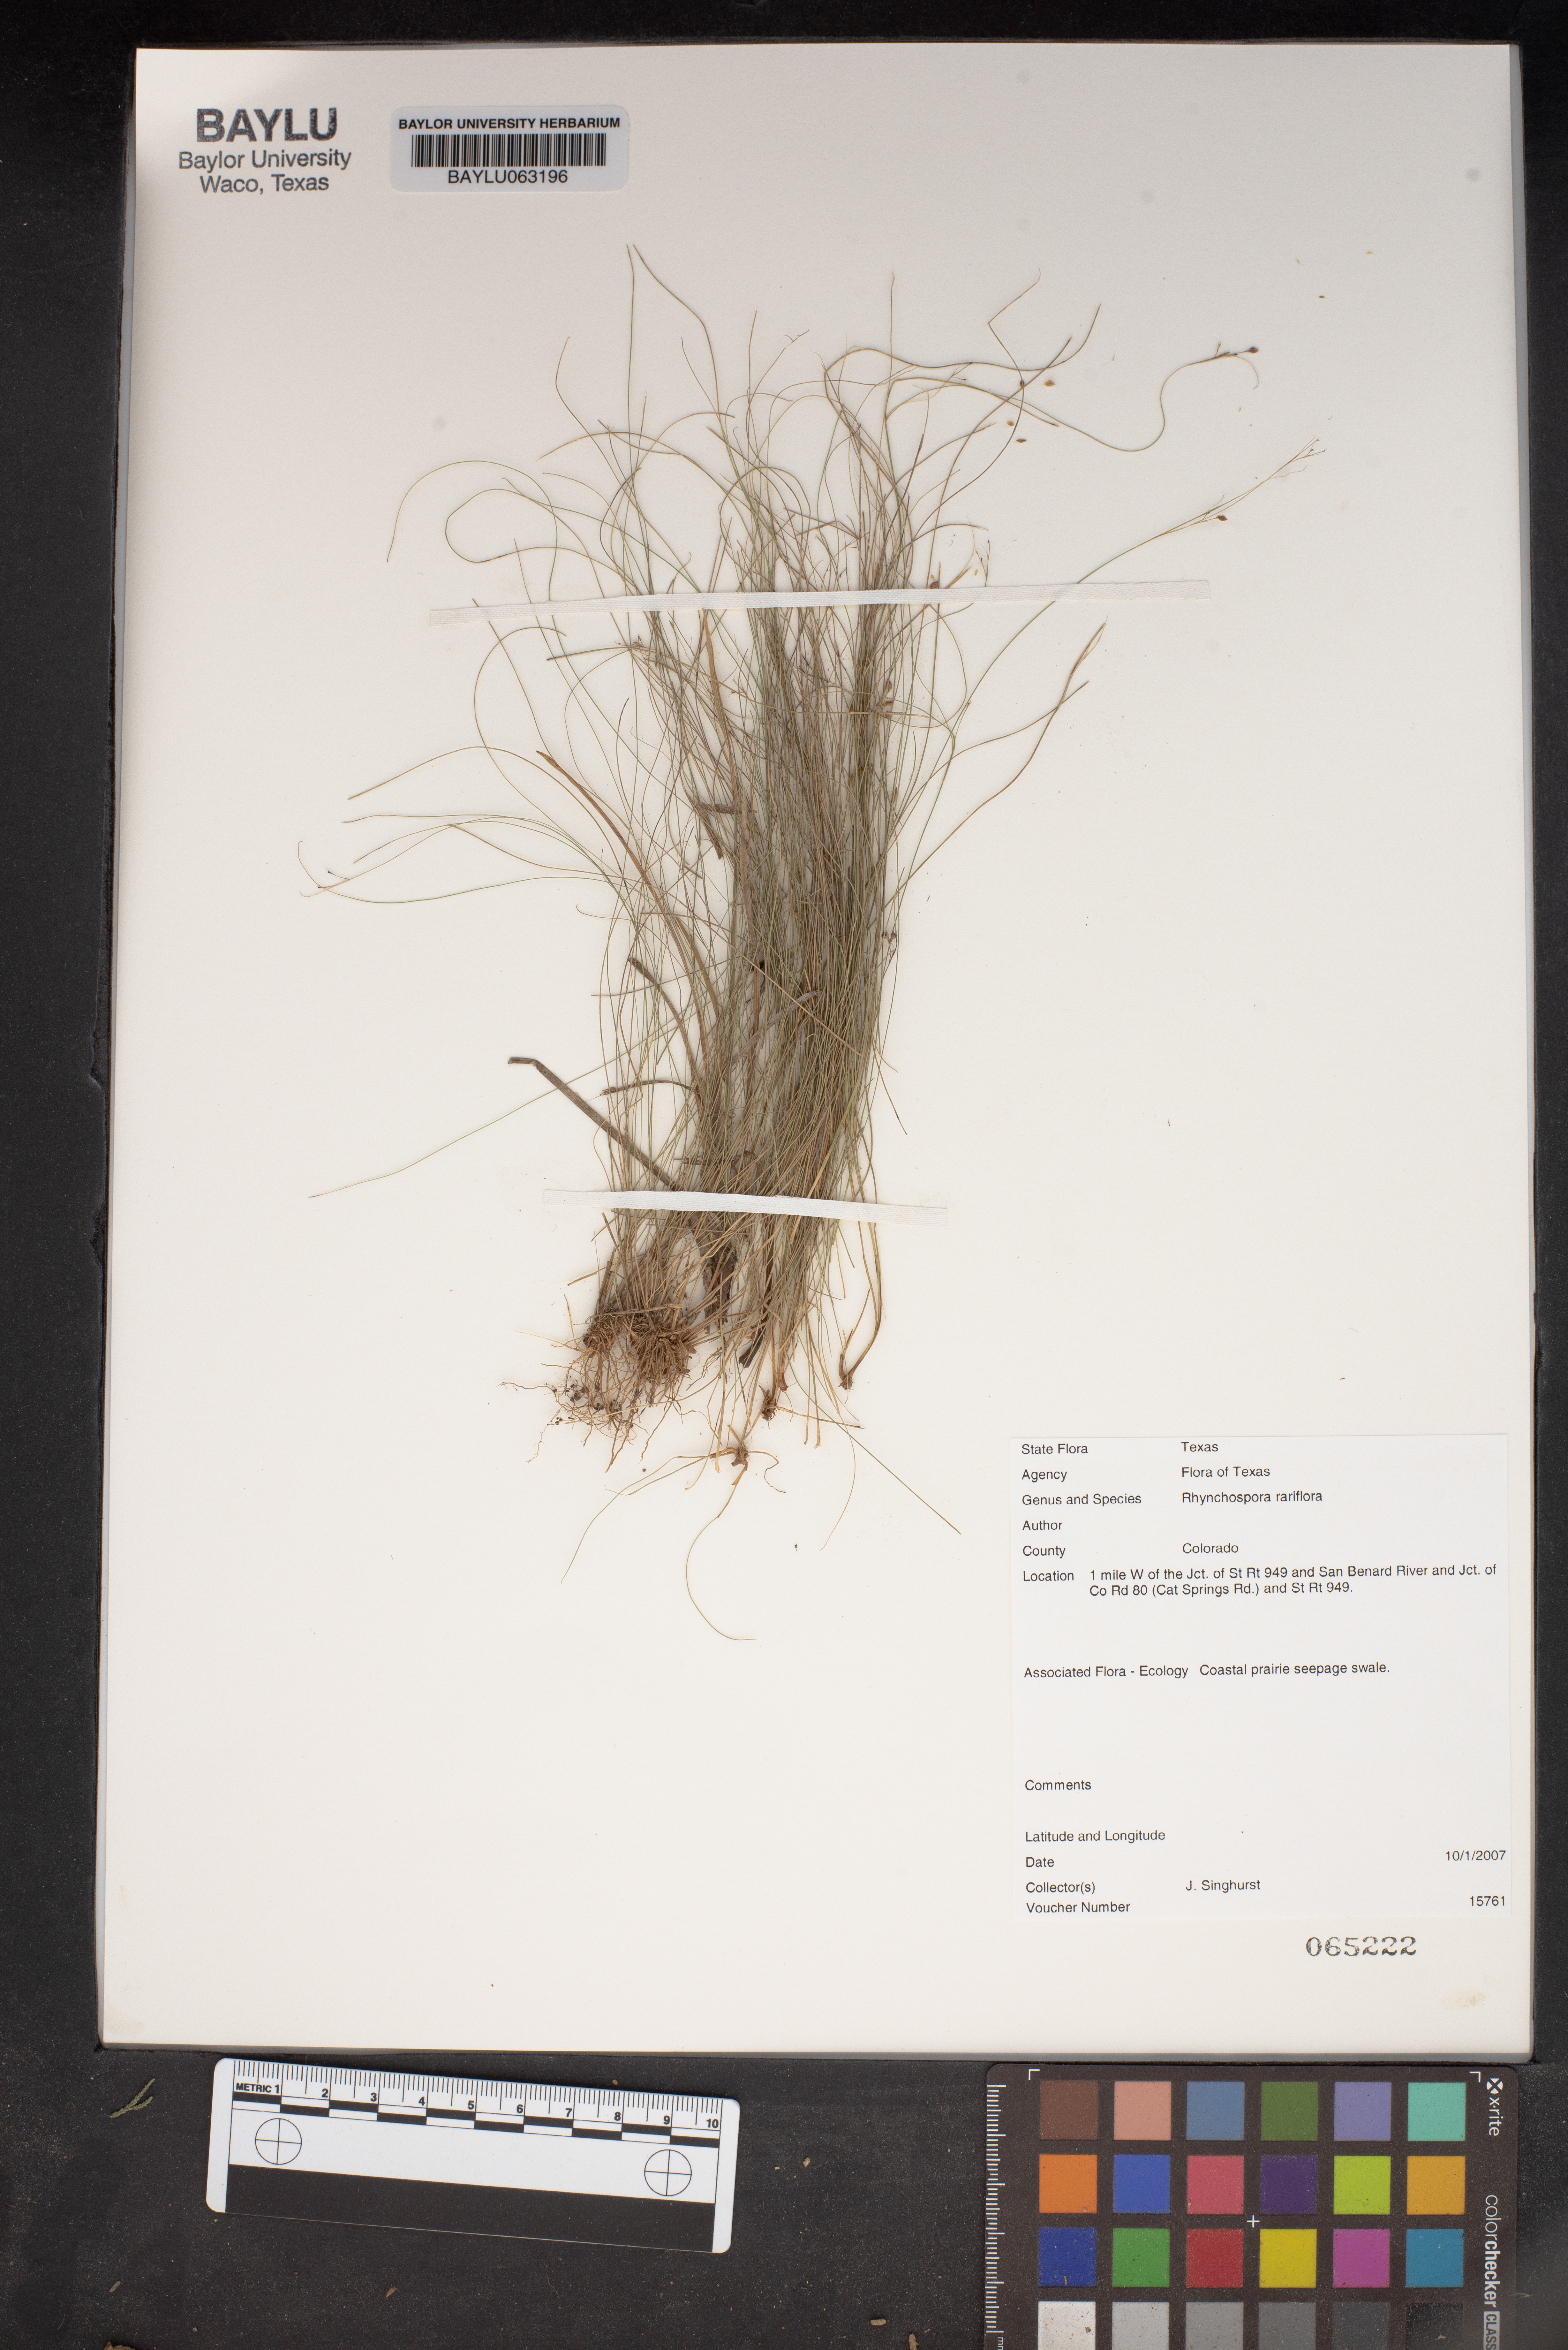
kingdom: Plantae
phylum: Tracheophyta
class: Liliopsida
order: Poales
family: Cyperaceae
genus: Rhynchospora
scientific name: Rhynchospora rariflora
